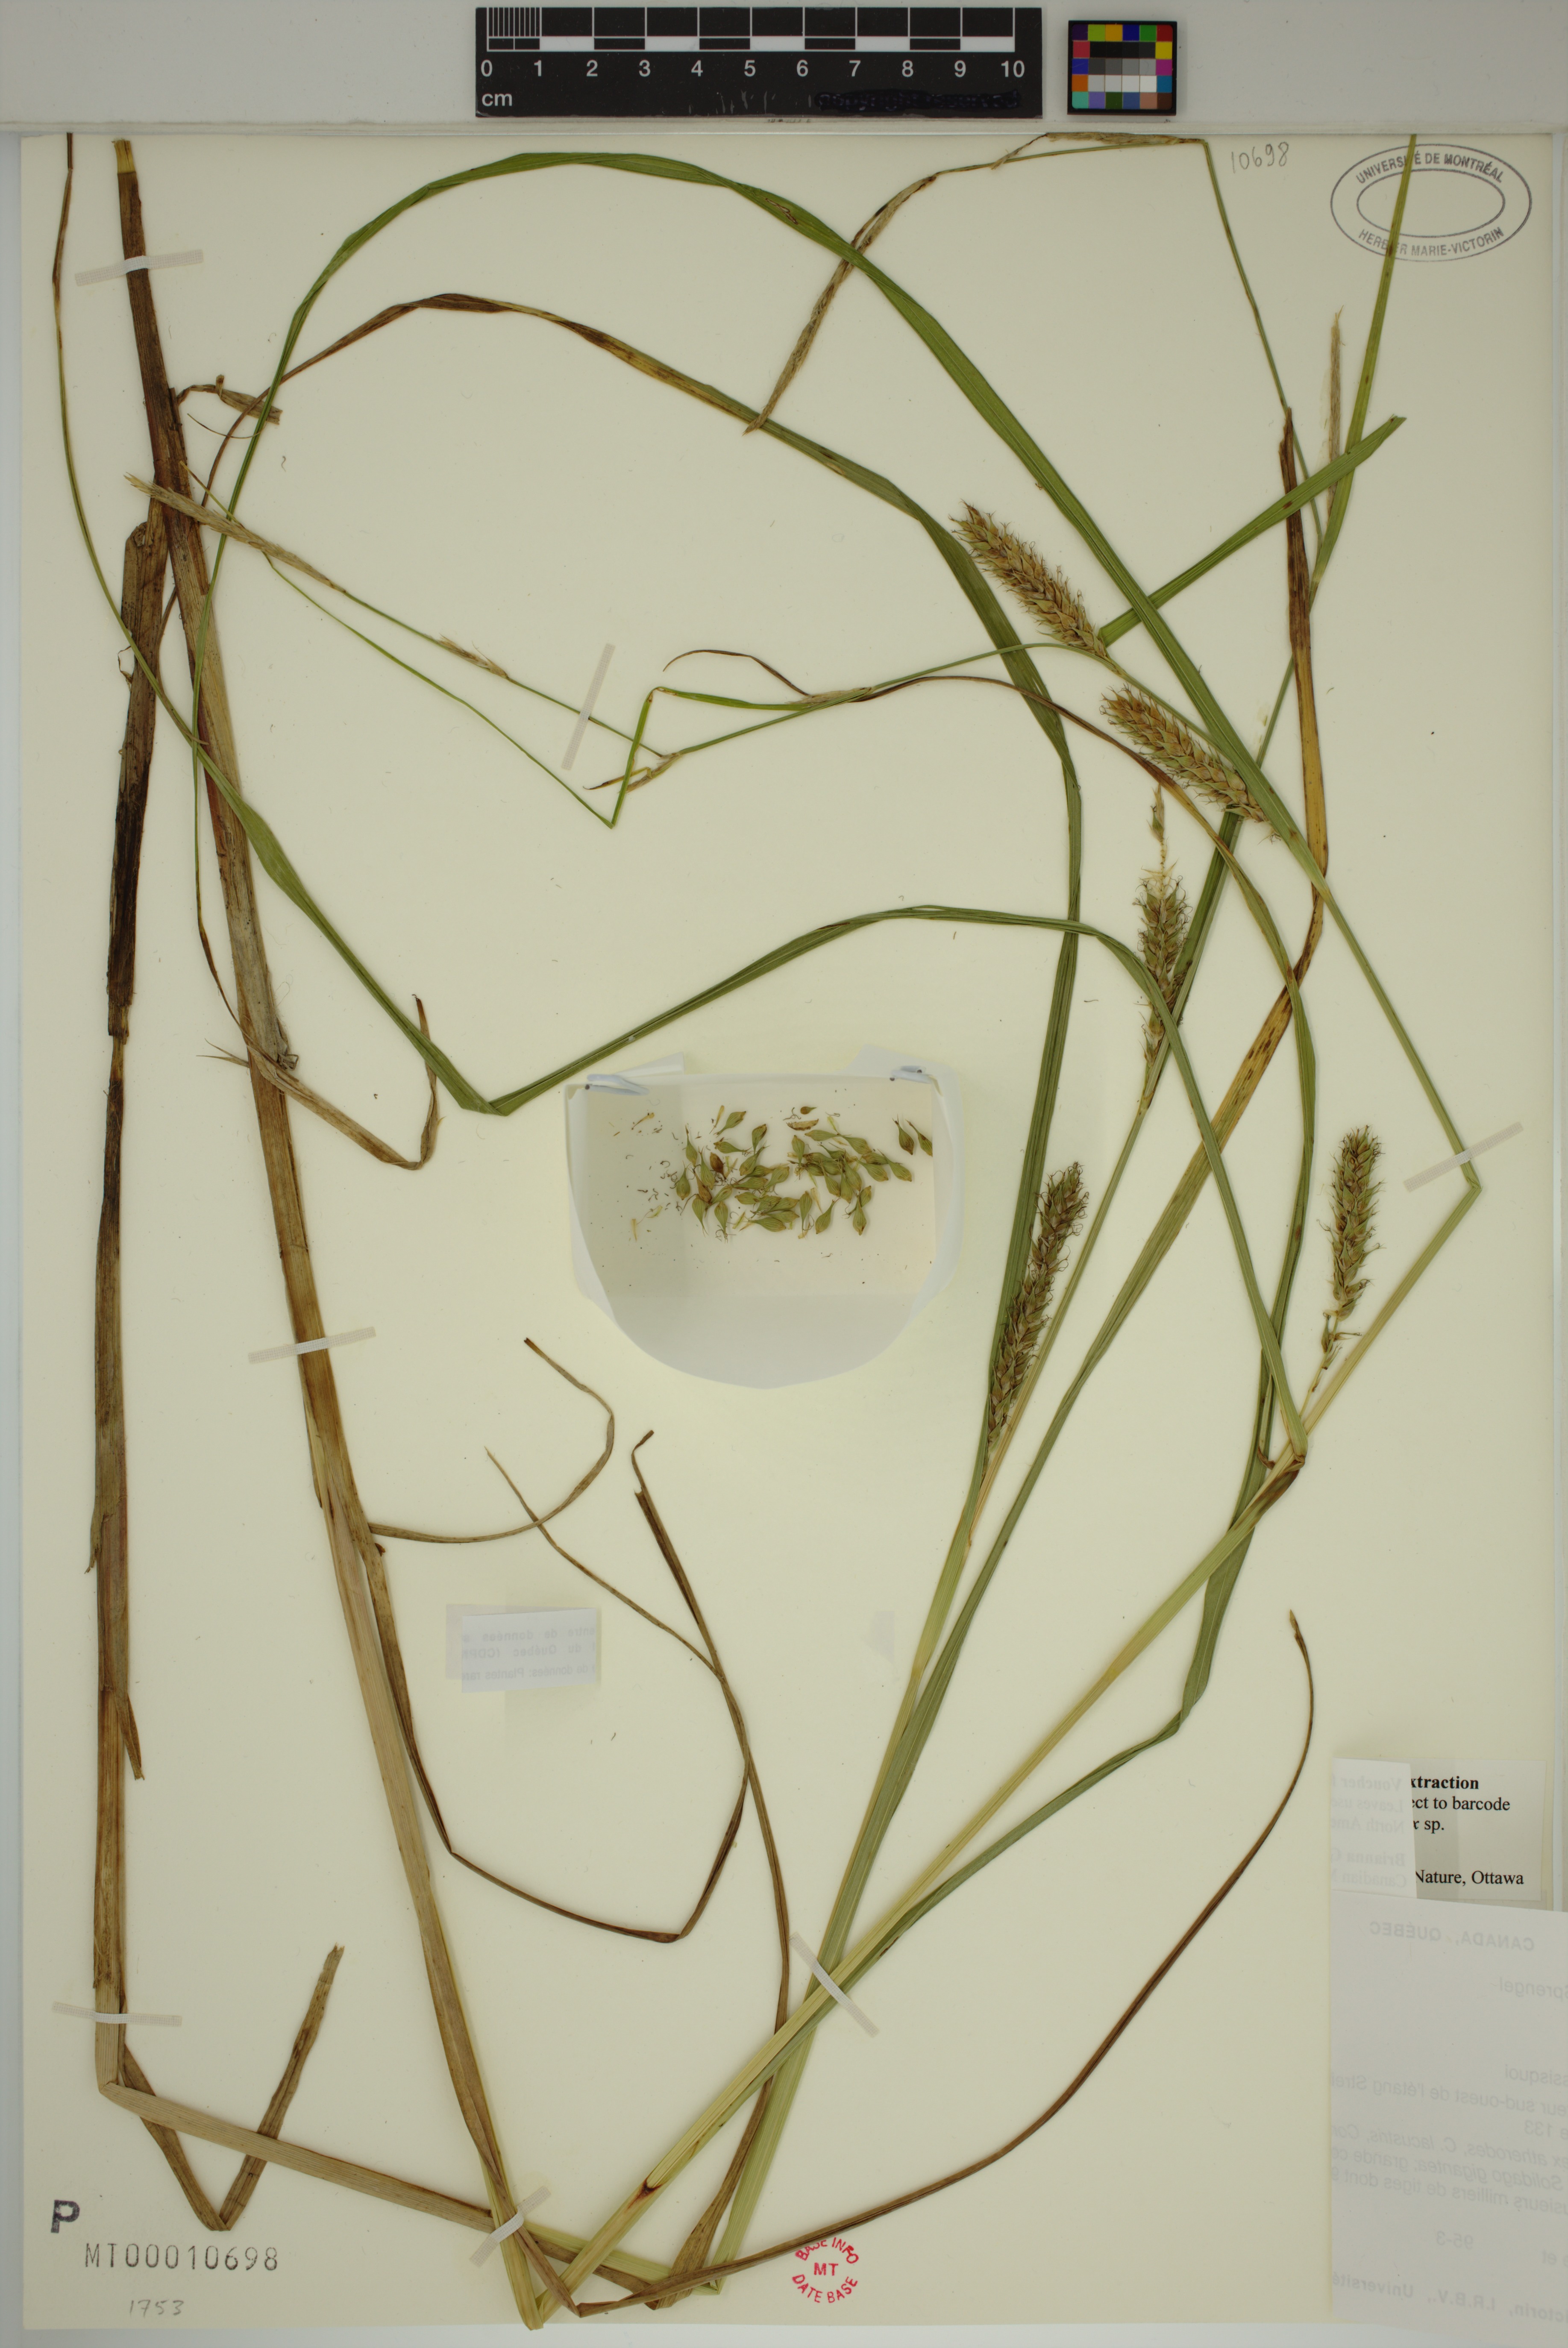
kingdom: Plantae
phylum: Tracheophyta
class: Liliopsida
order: Poales
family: Cyperaceae
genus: Carex
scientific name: Carex atherodes
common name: Wheat sedge
